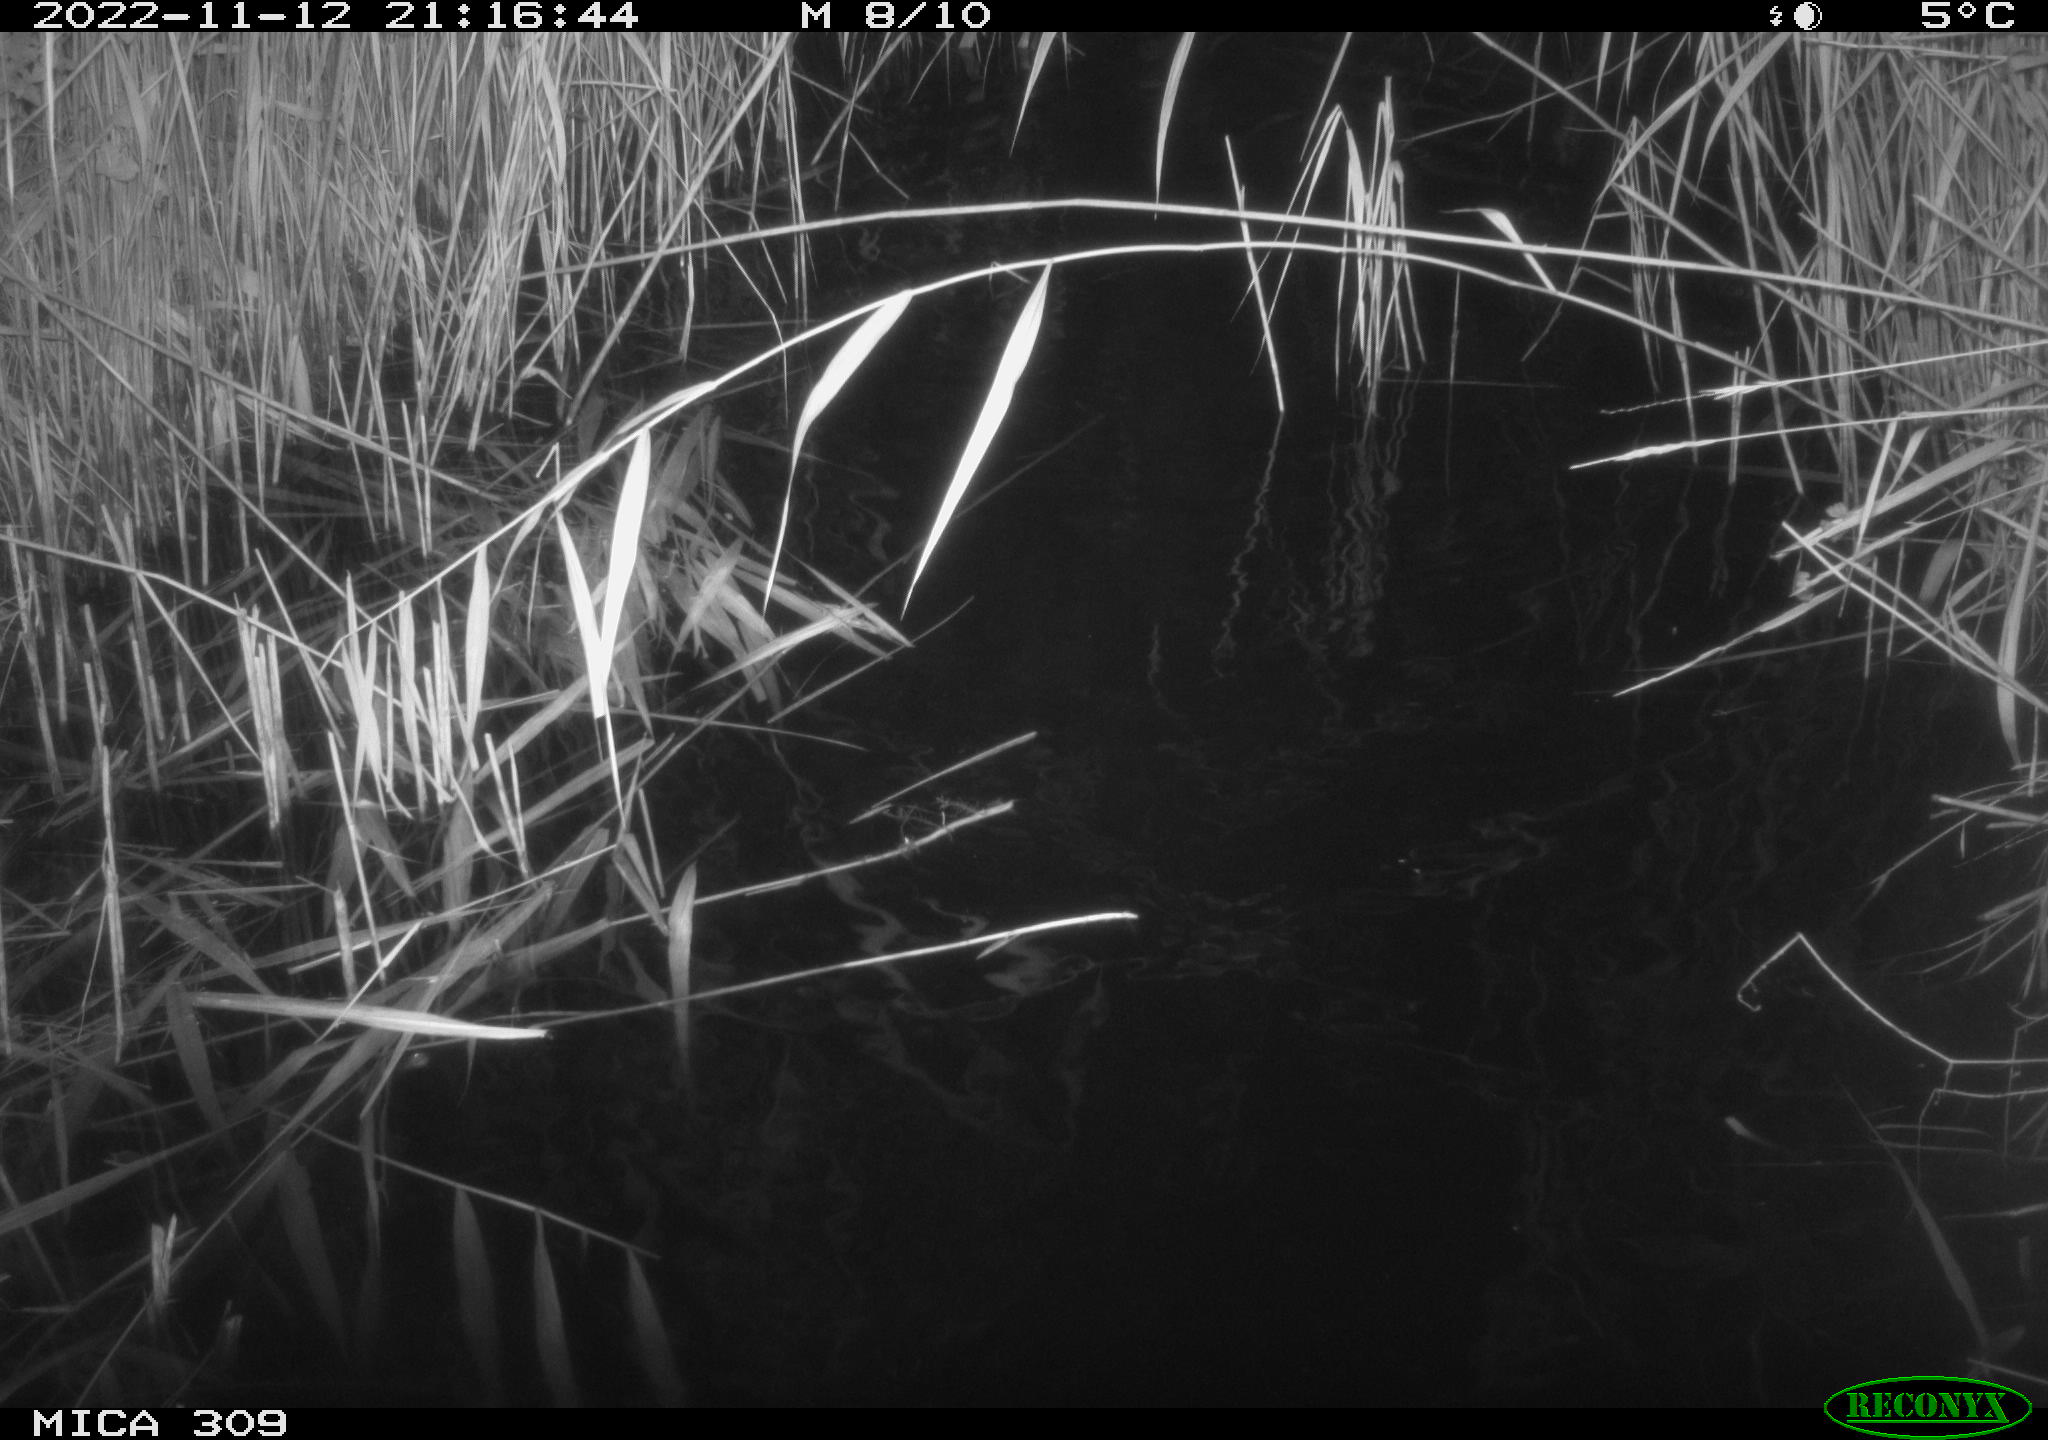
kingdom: Animalia
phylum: Chordata
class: Mammalia
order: Rodentia
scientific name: Rodentia
